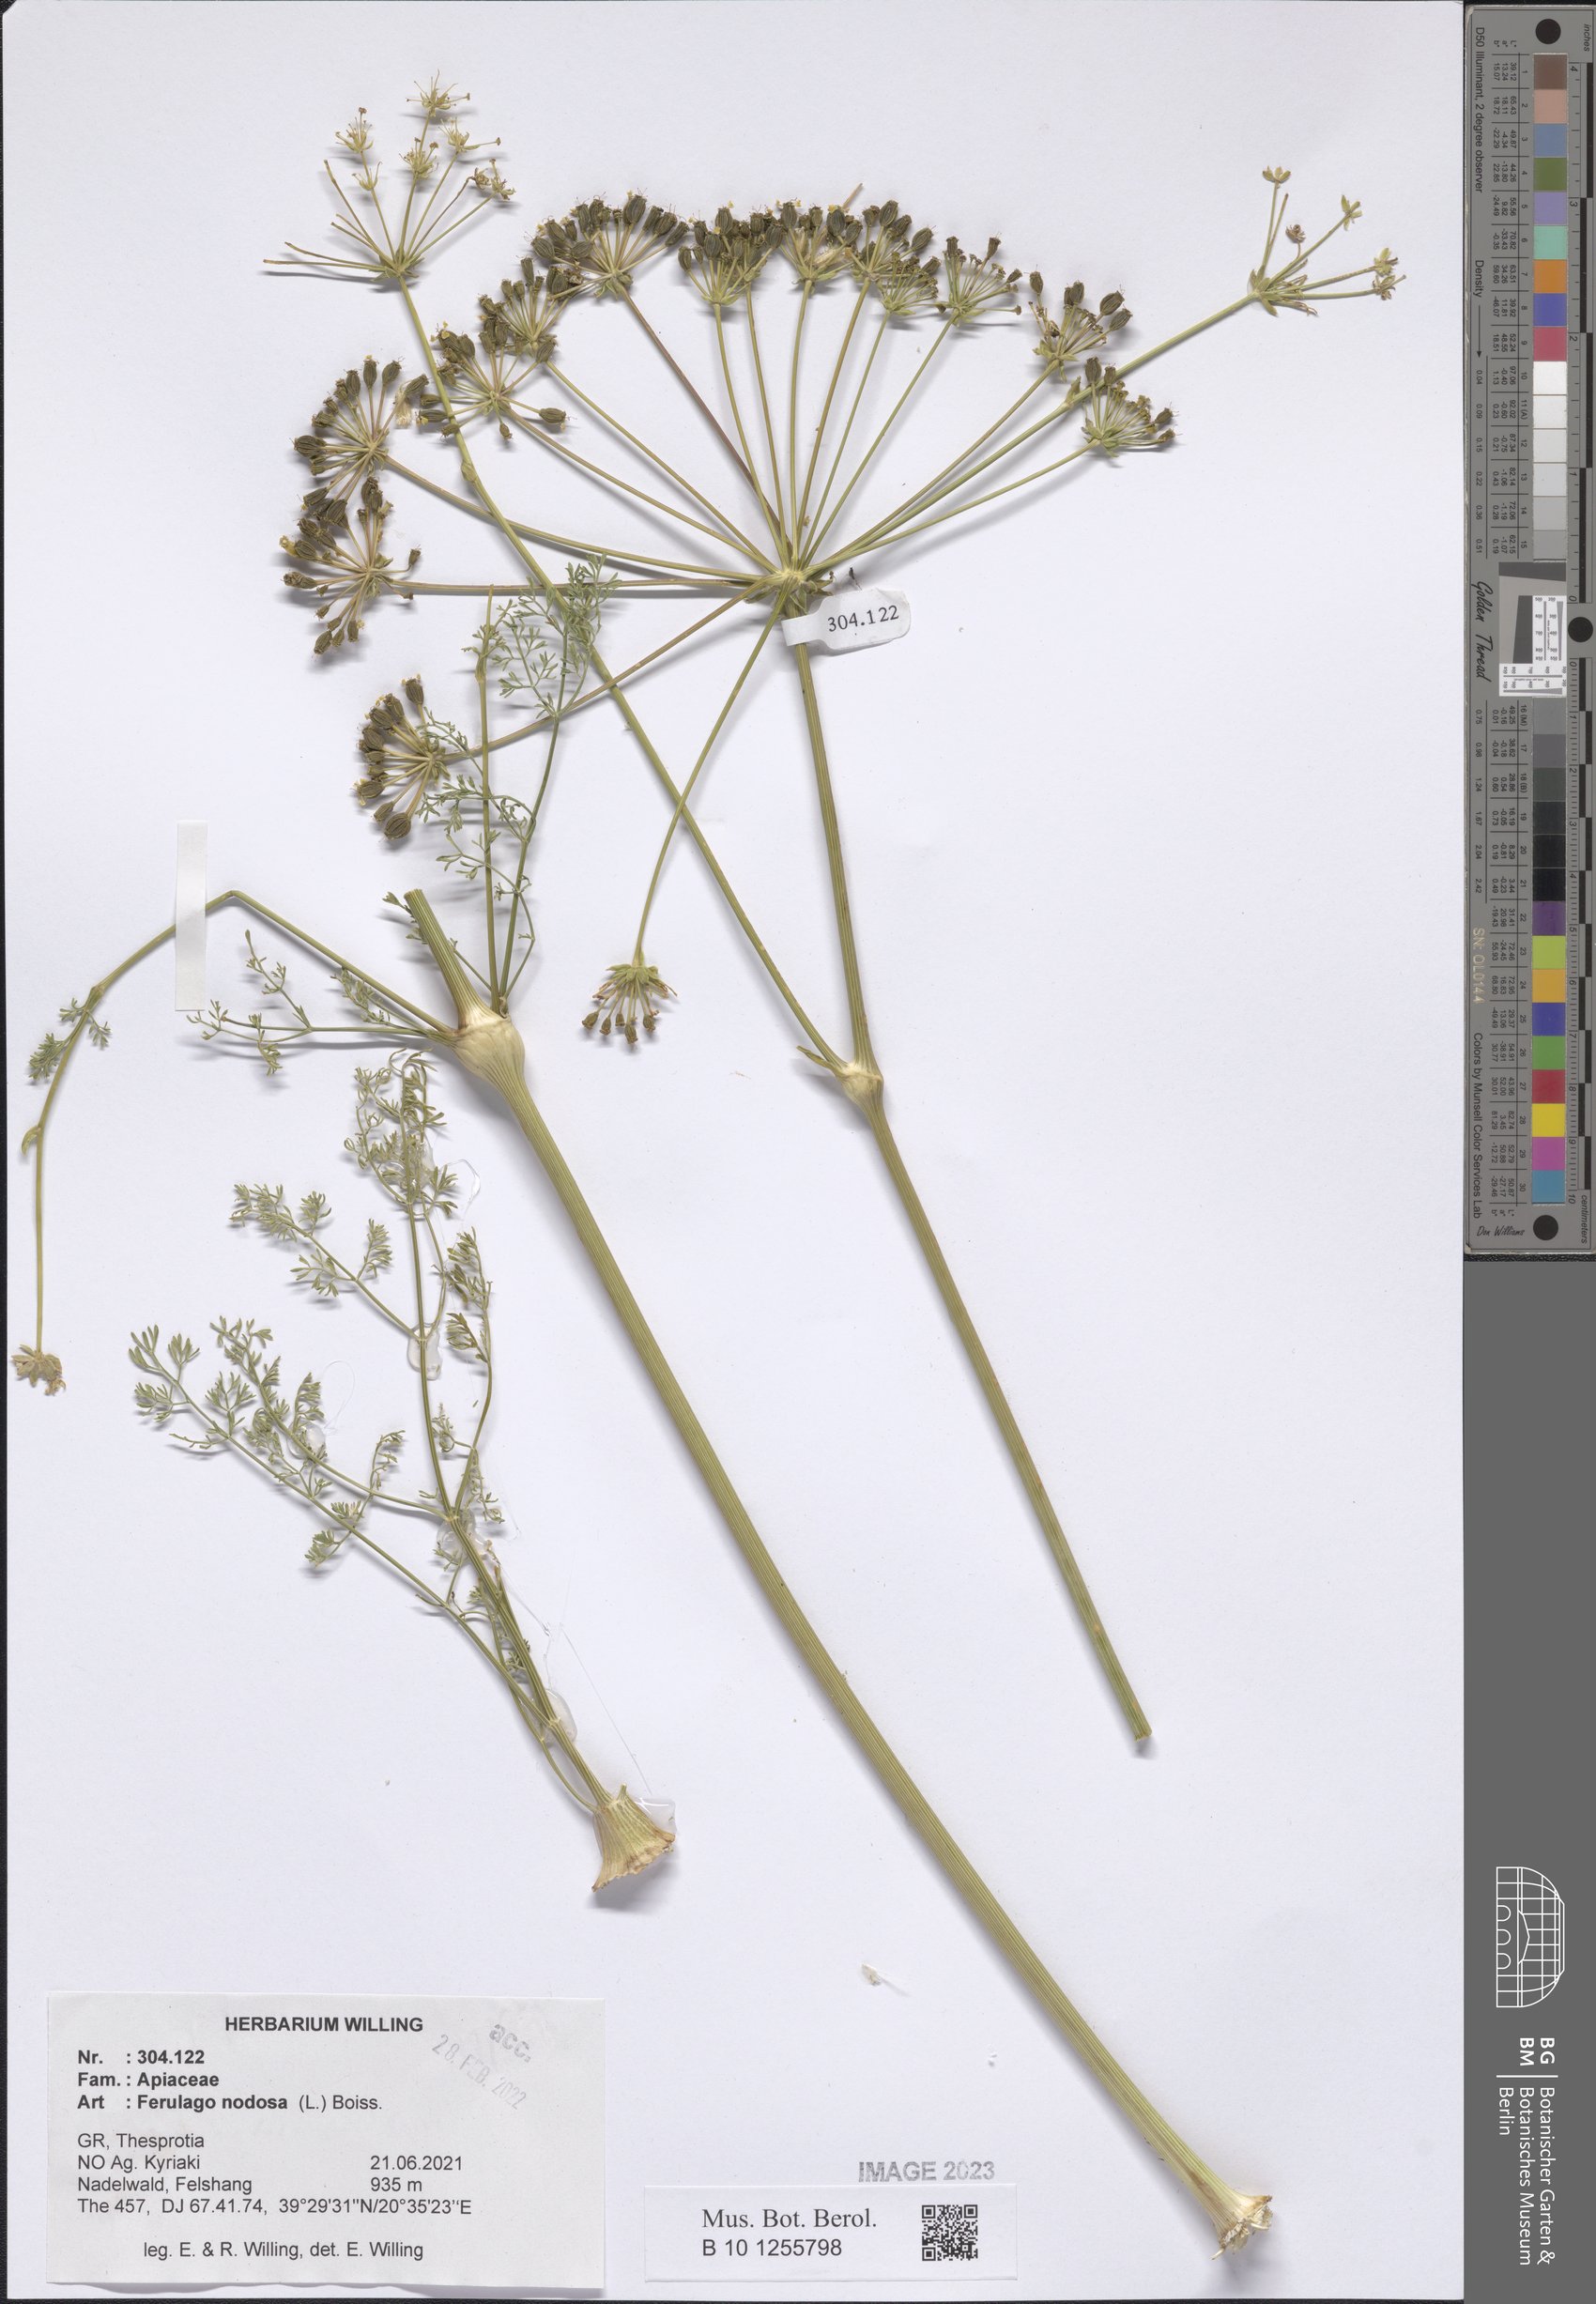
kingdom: Plantae
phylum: Tracheophyta
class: Magnoliopsida
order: Apiales
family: Apiaceae
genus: Ferulago
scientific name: Ferulago nodosa
